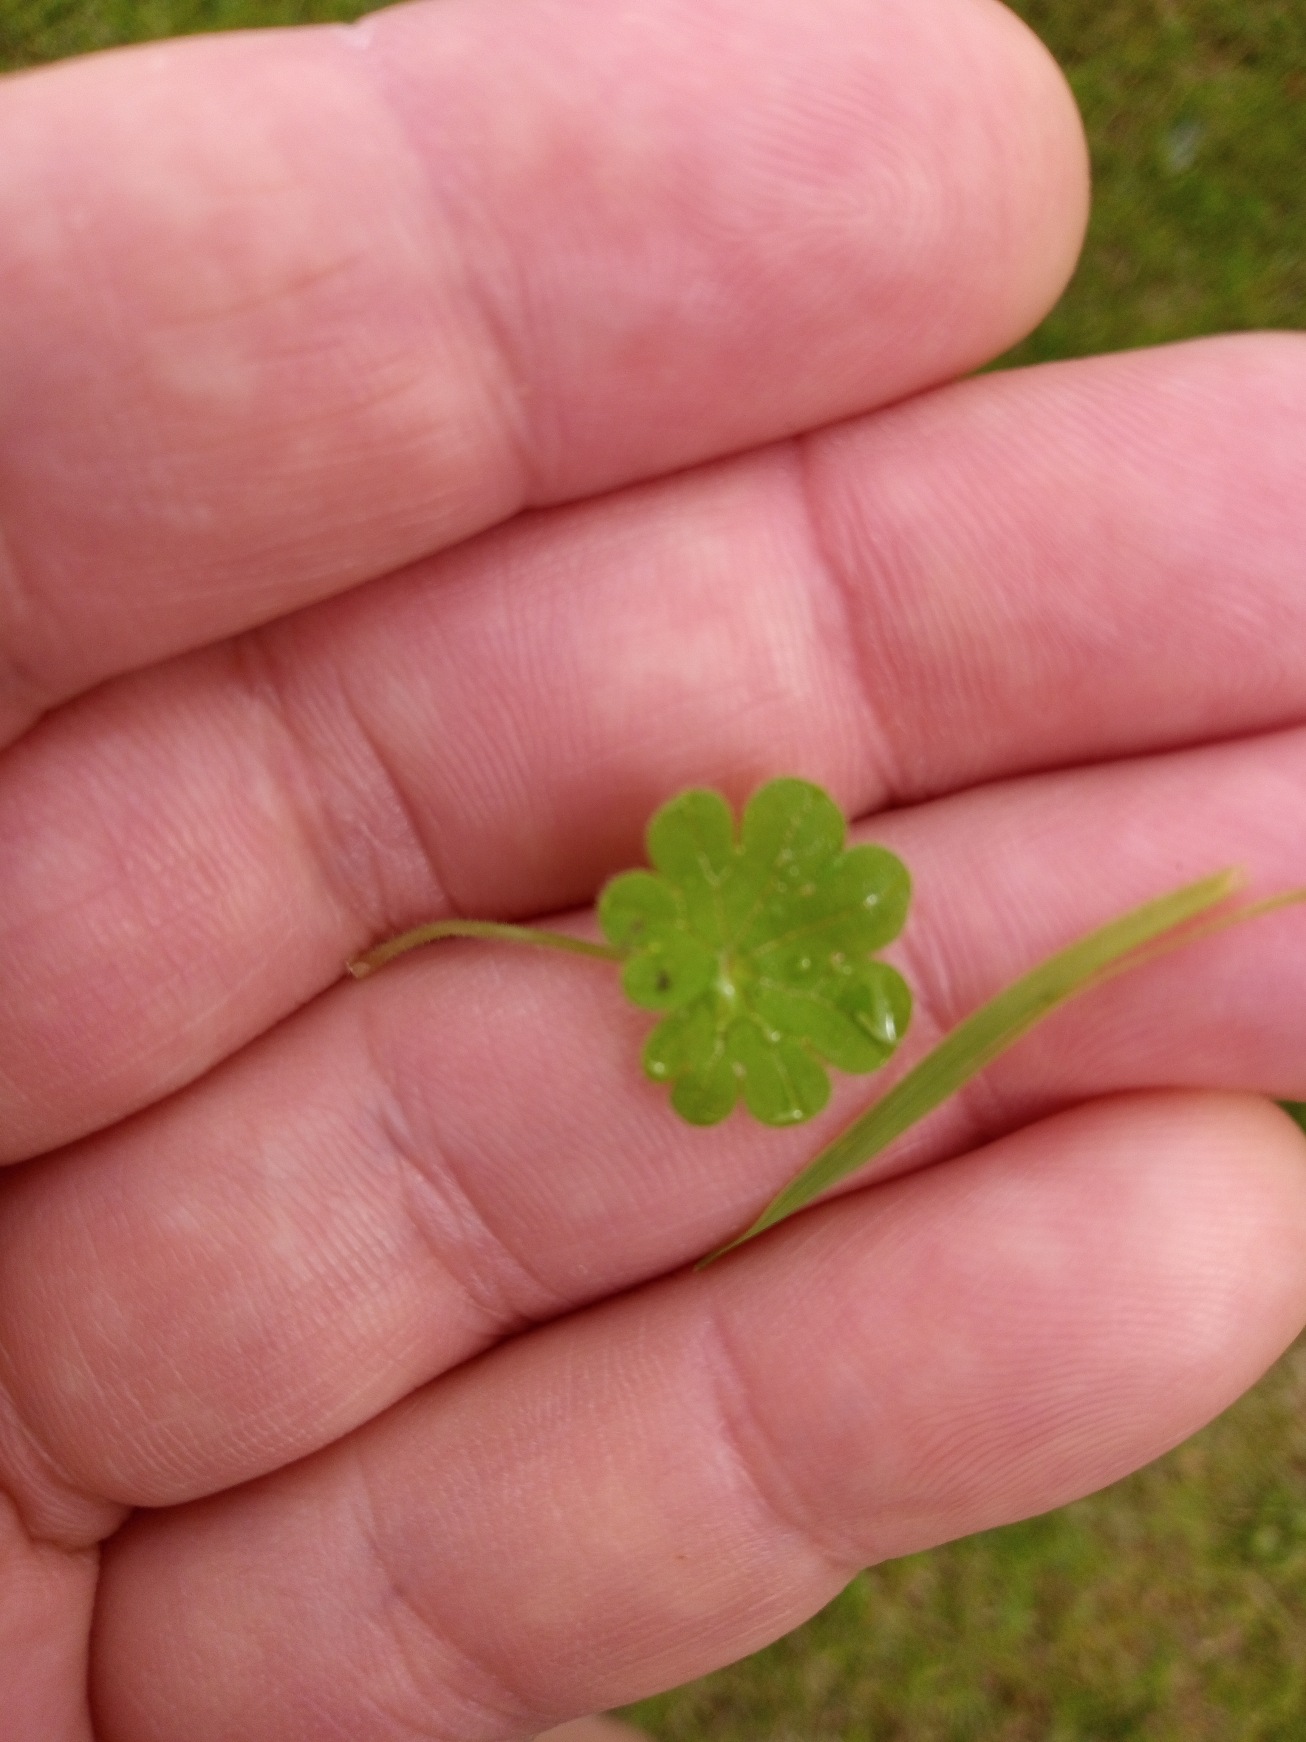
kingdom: Plantae
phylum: Tracheophyta
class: Magnoliopsida
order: Geraniales
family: Geraniaceae
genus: Geranium
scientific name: Geranium molle
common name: Blød storkenæb
